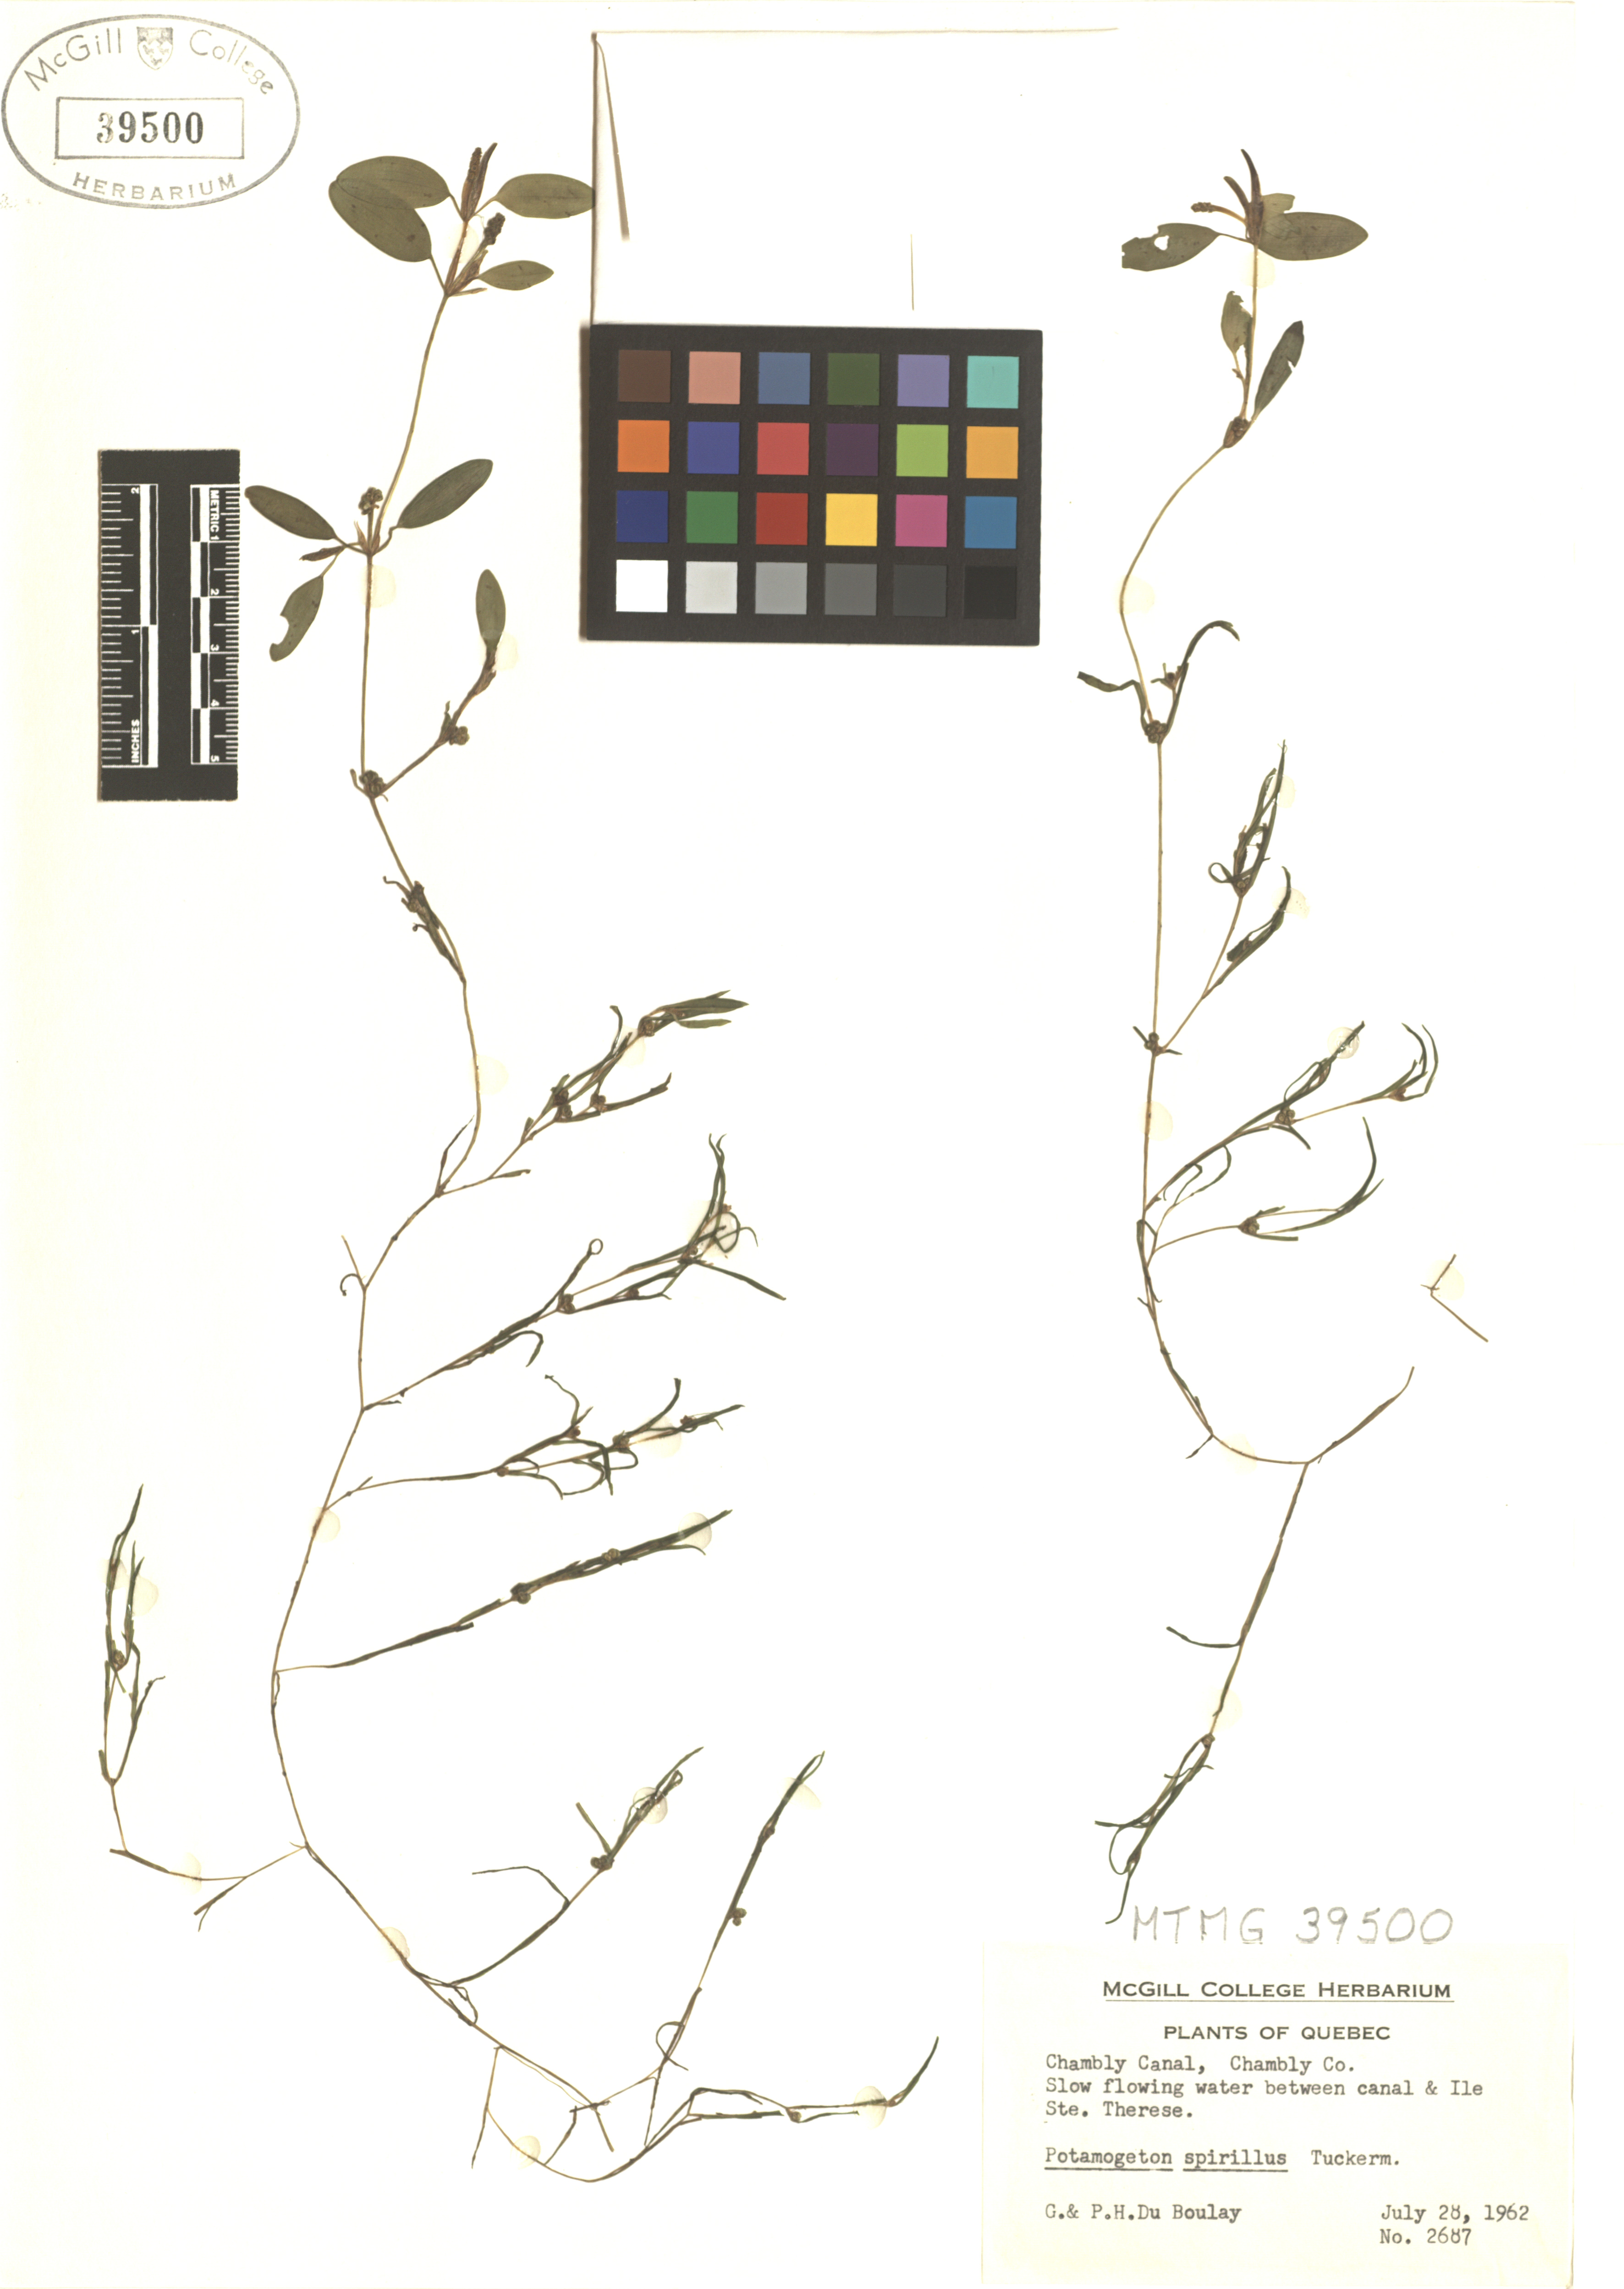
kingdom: Plantae
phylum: Tracheophyta
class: Liliopsida
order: Alismatales
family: Potamogetonaceae
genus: Potamogeton
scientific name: Potamogeton spirillus
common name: Northern snail-seed pondweed
